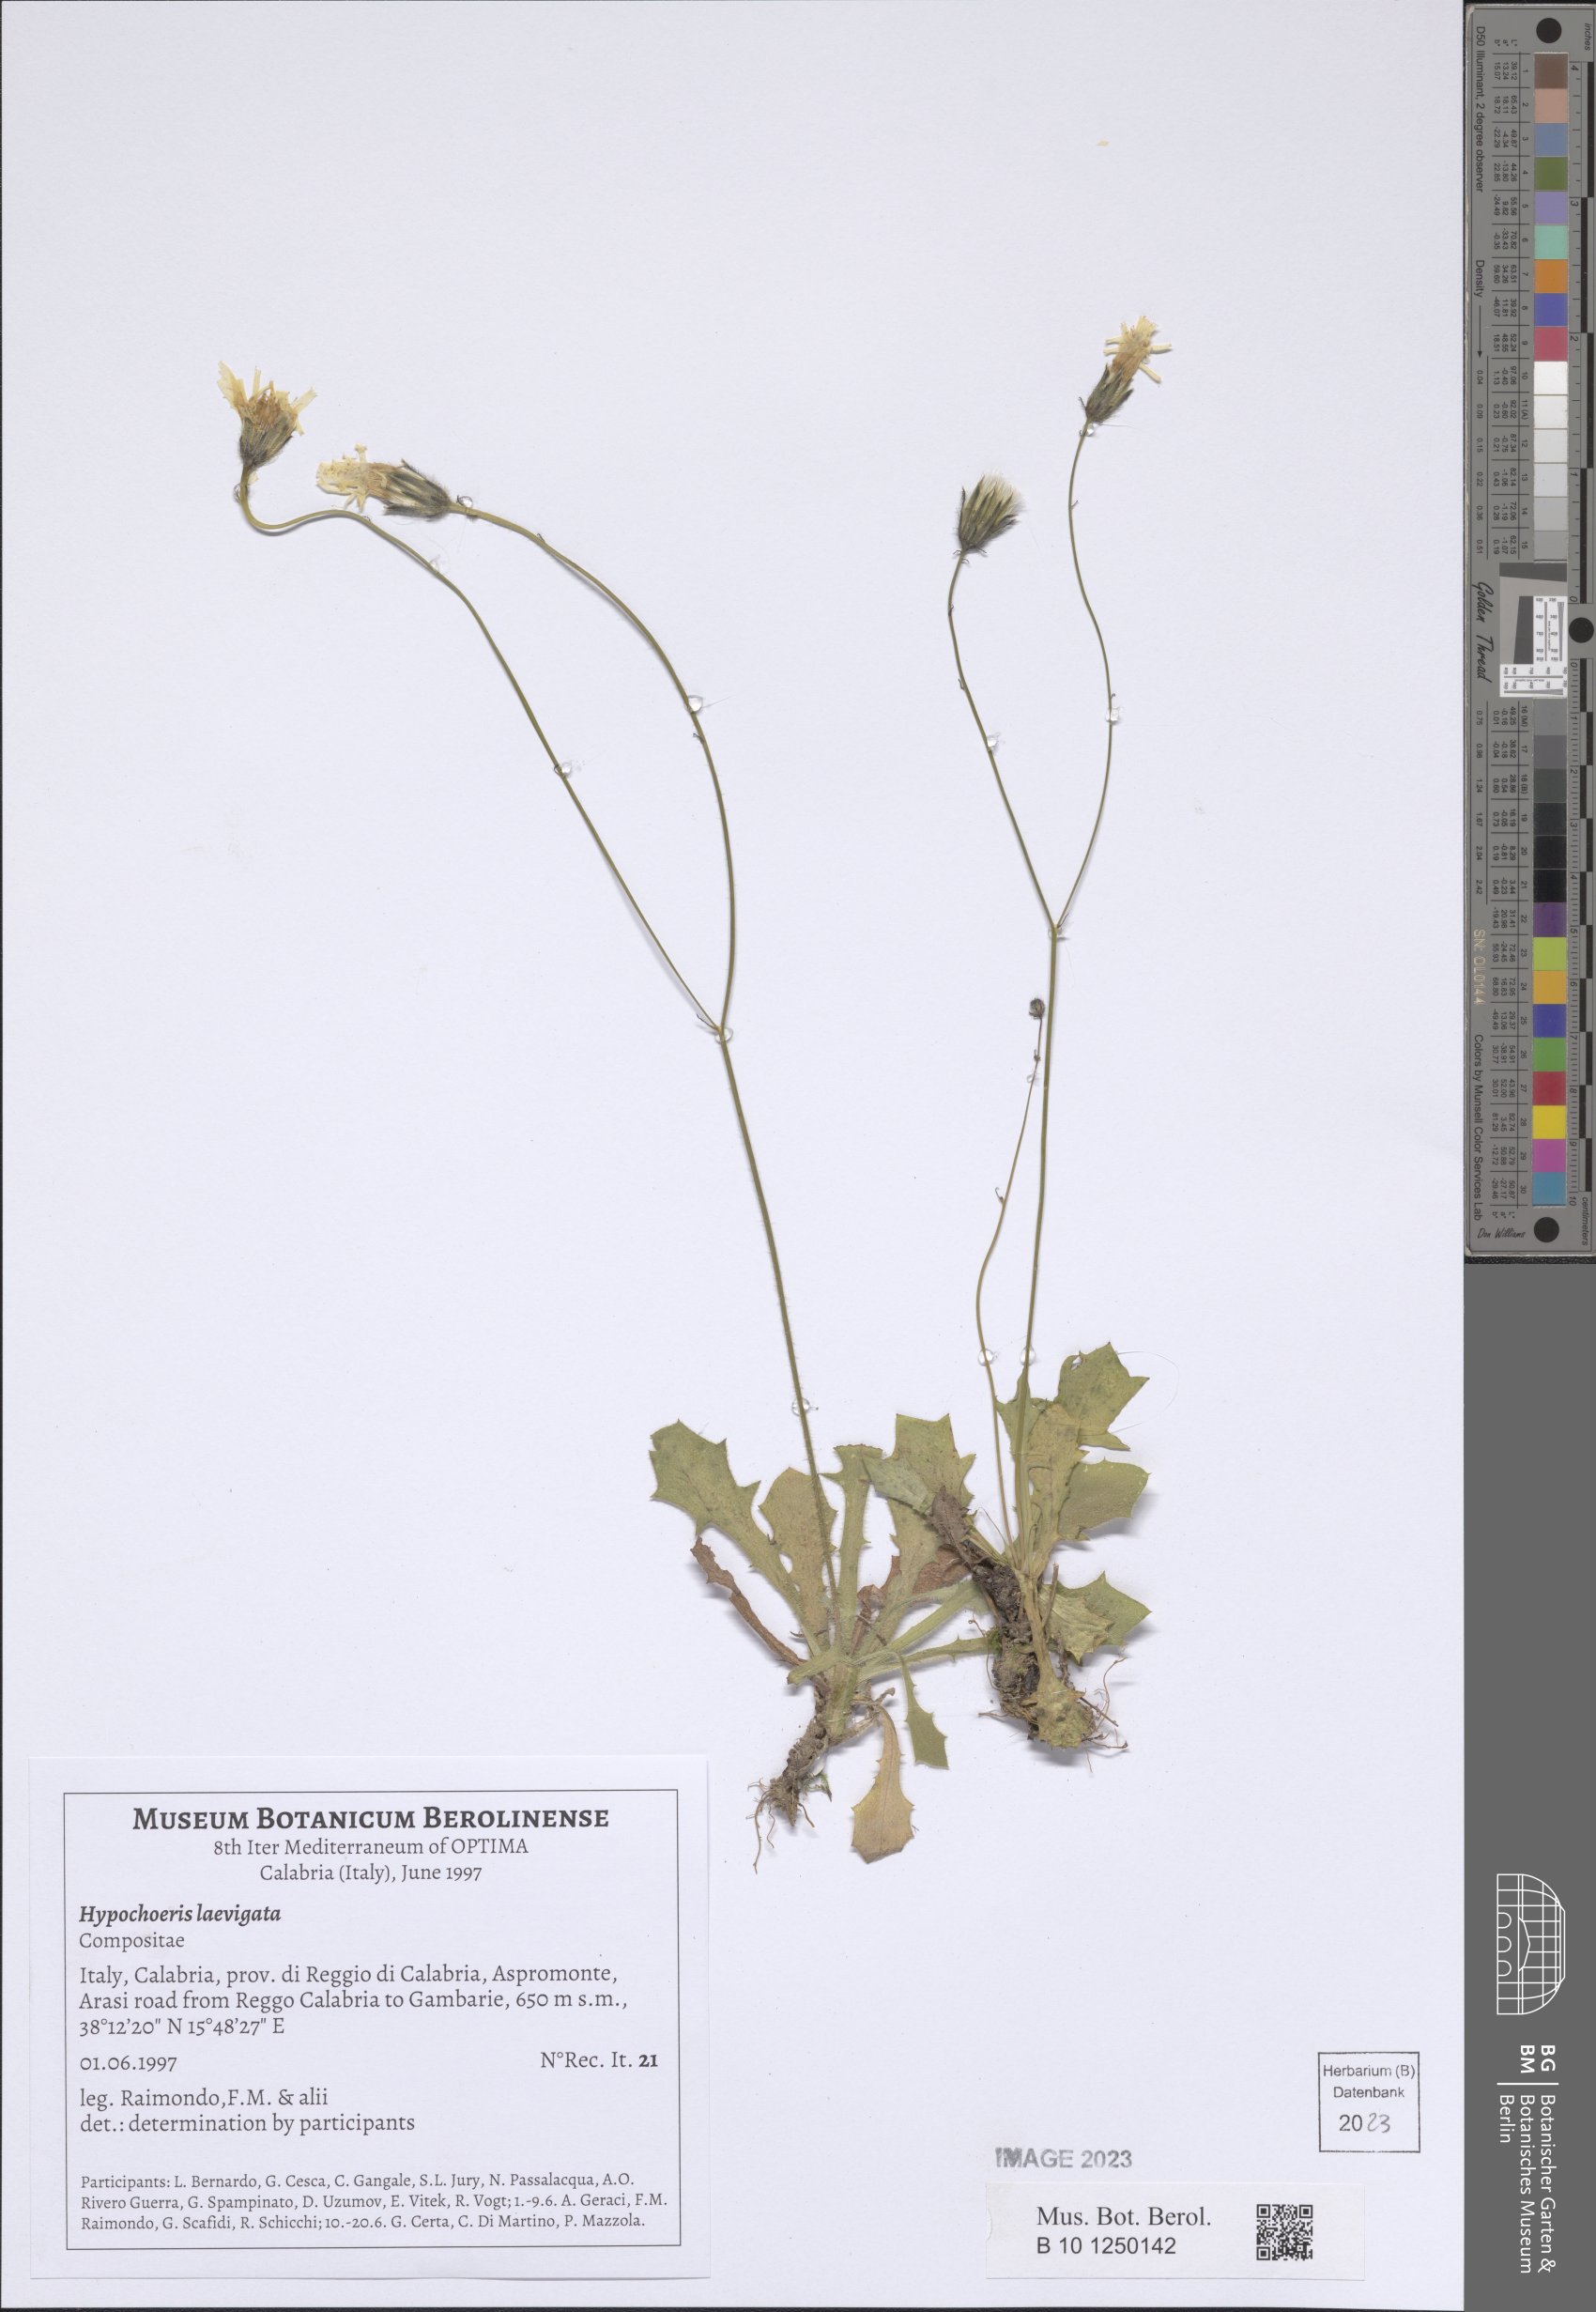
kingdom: Plantae
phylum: Tracheophyta
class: Magnoliopsida
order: Asterales
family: Asteraceae
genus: Achyrophorus
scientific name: Achyrophorus laevigatus
